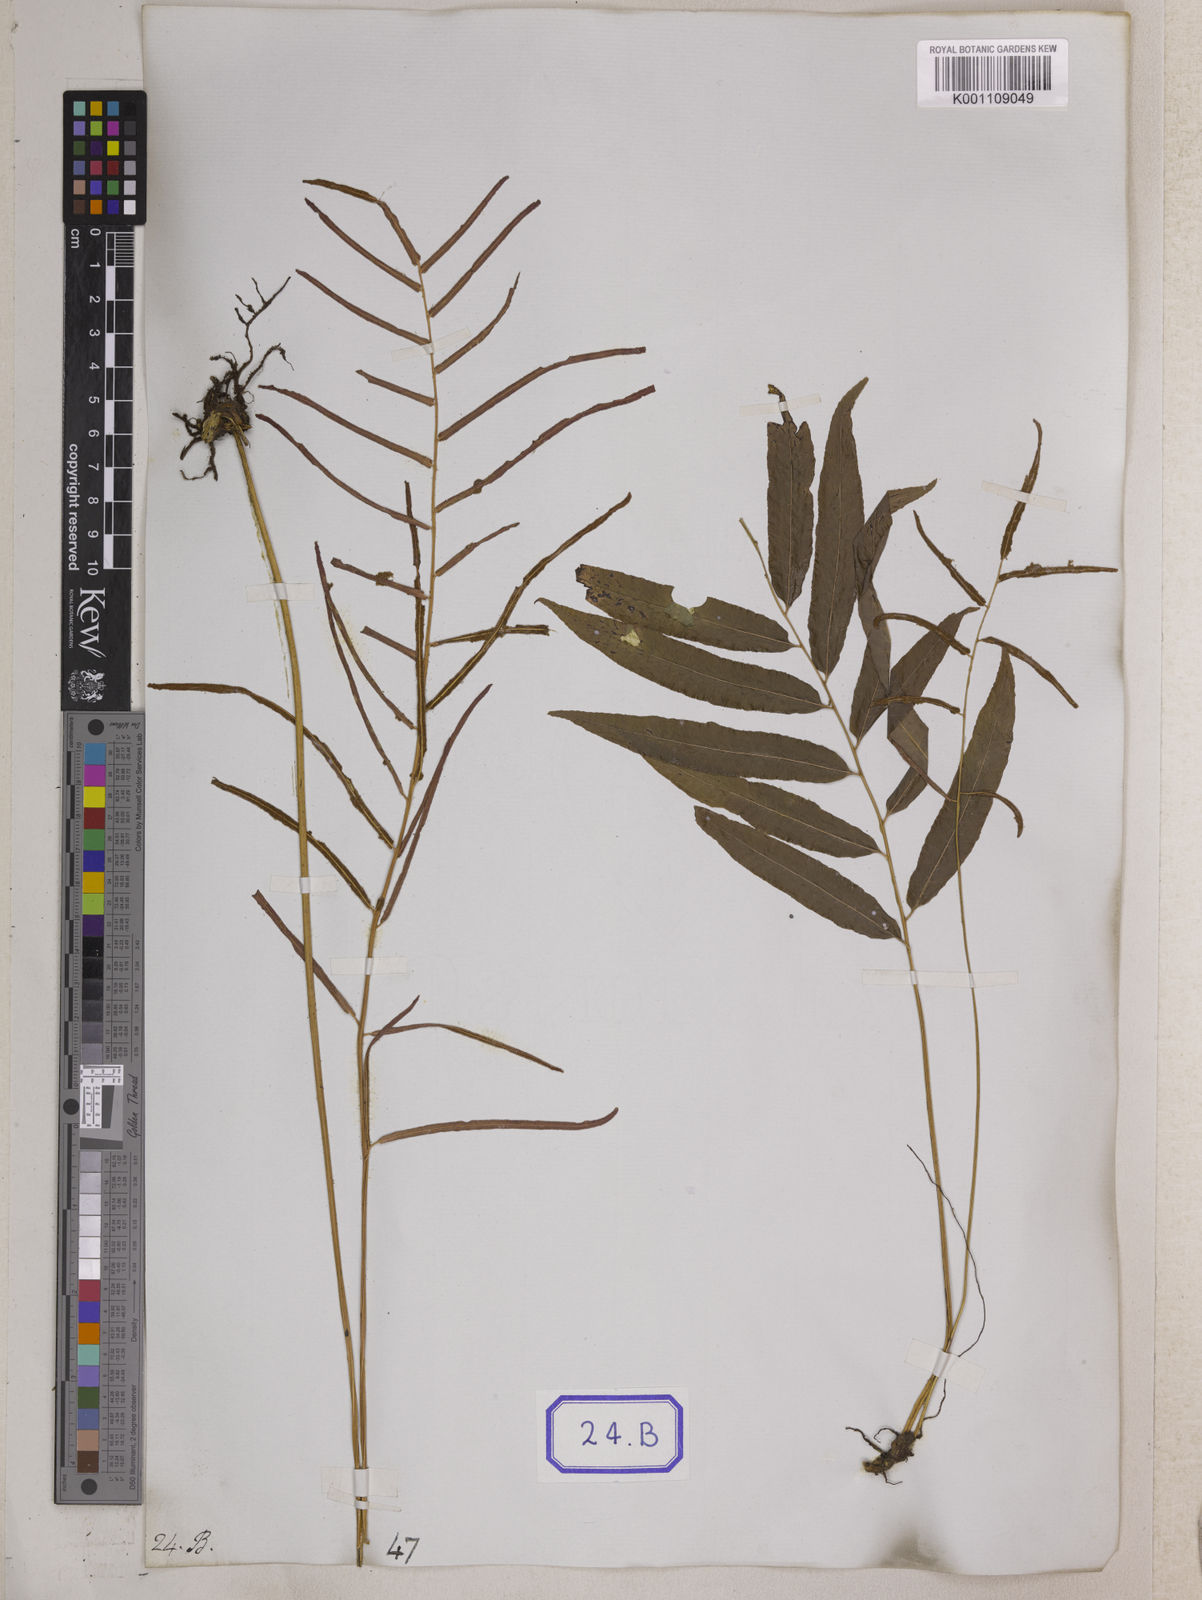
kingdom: Plantae
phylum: Tracheophyta
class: Polypodiopsida
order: Polypodiales
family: Dryopteridaceae
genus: Bolbitis
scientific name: Bolbitis crispatula
